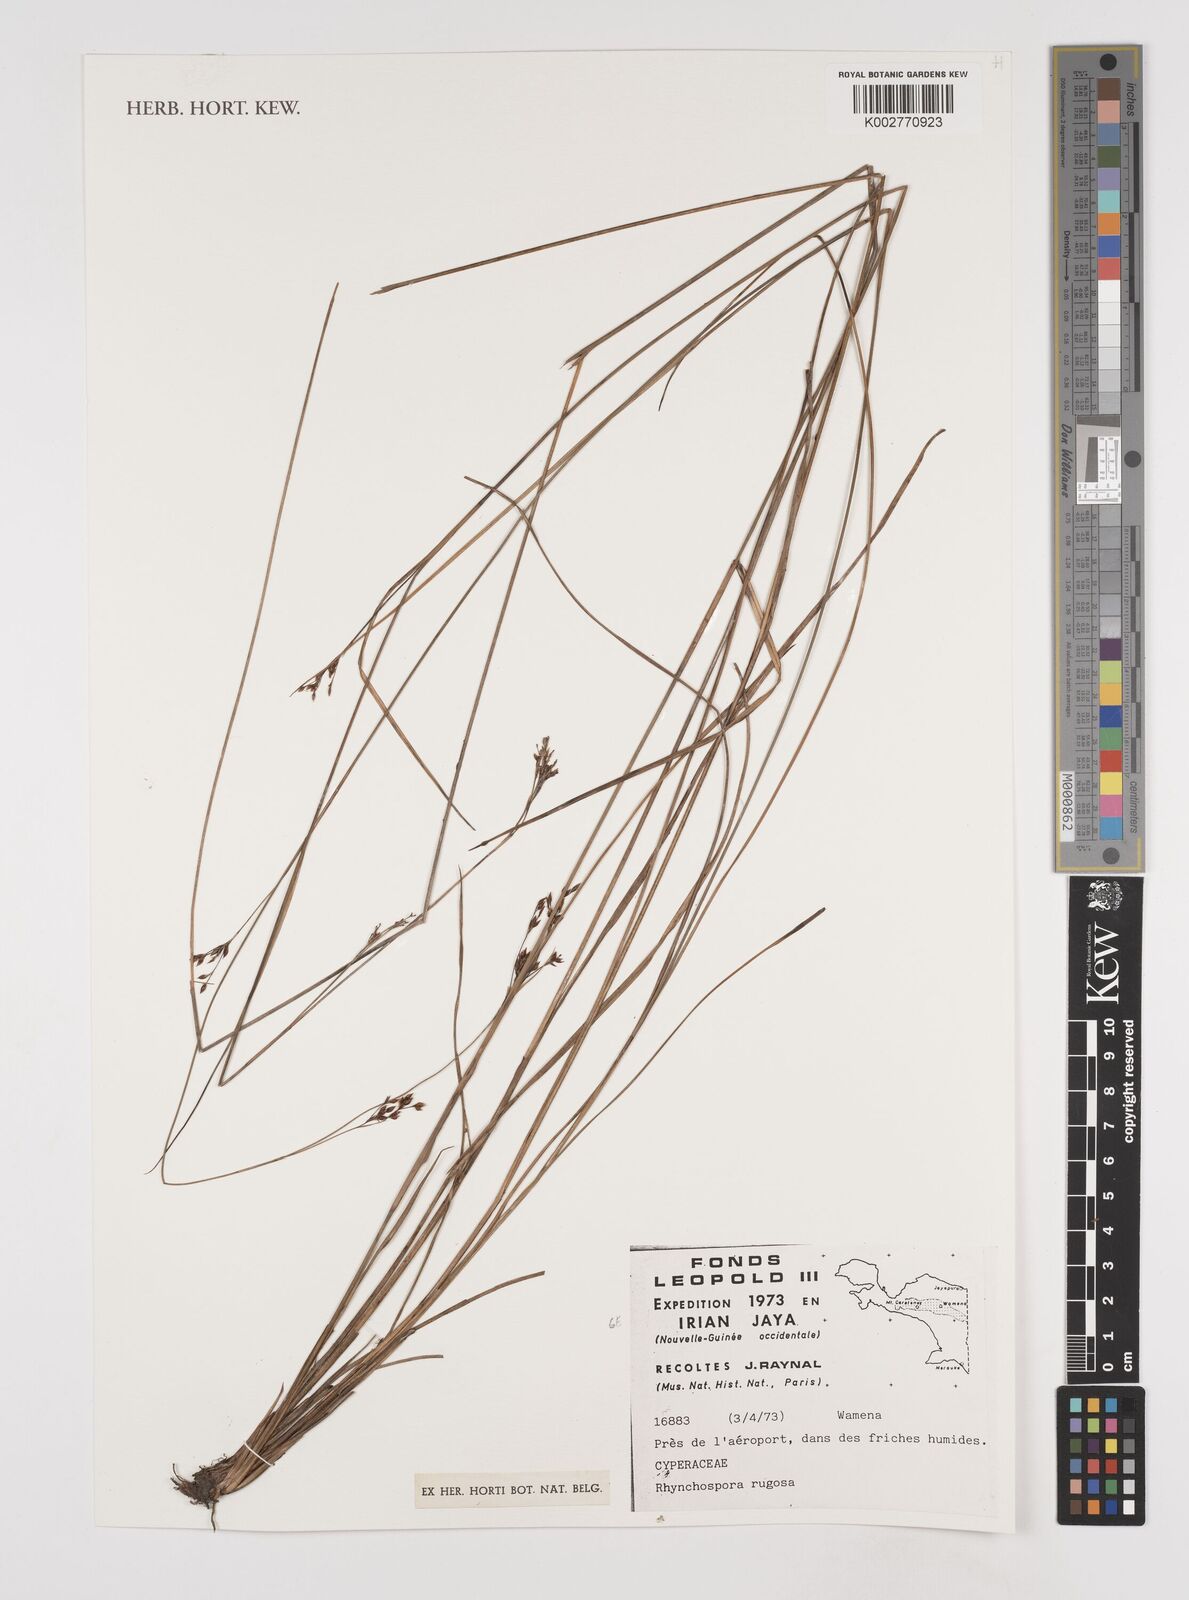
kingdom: Plantae
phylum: Tracheophyta
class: Liliopsida
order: Poales
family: Cyperaceae
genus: Rhynchospora
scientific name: Rhynchospora rugosa
